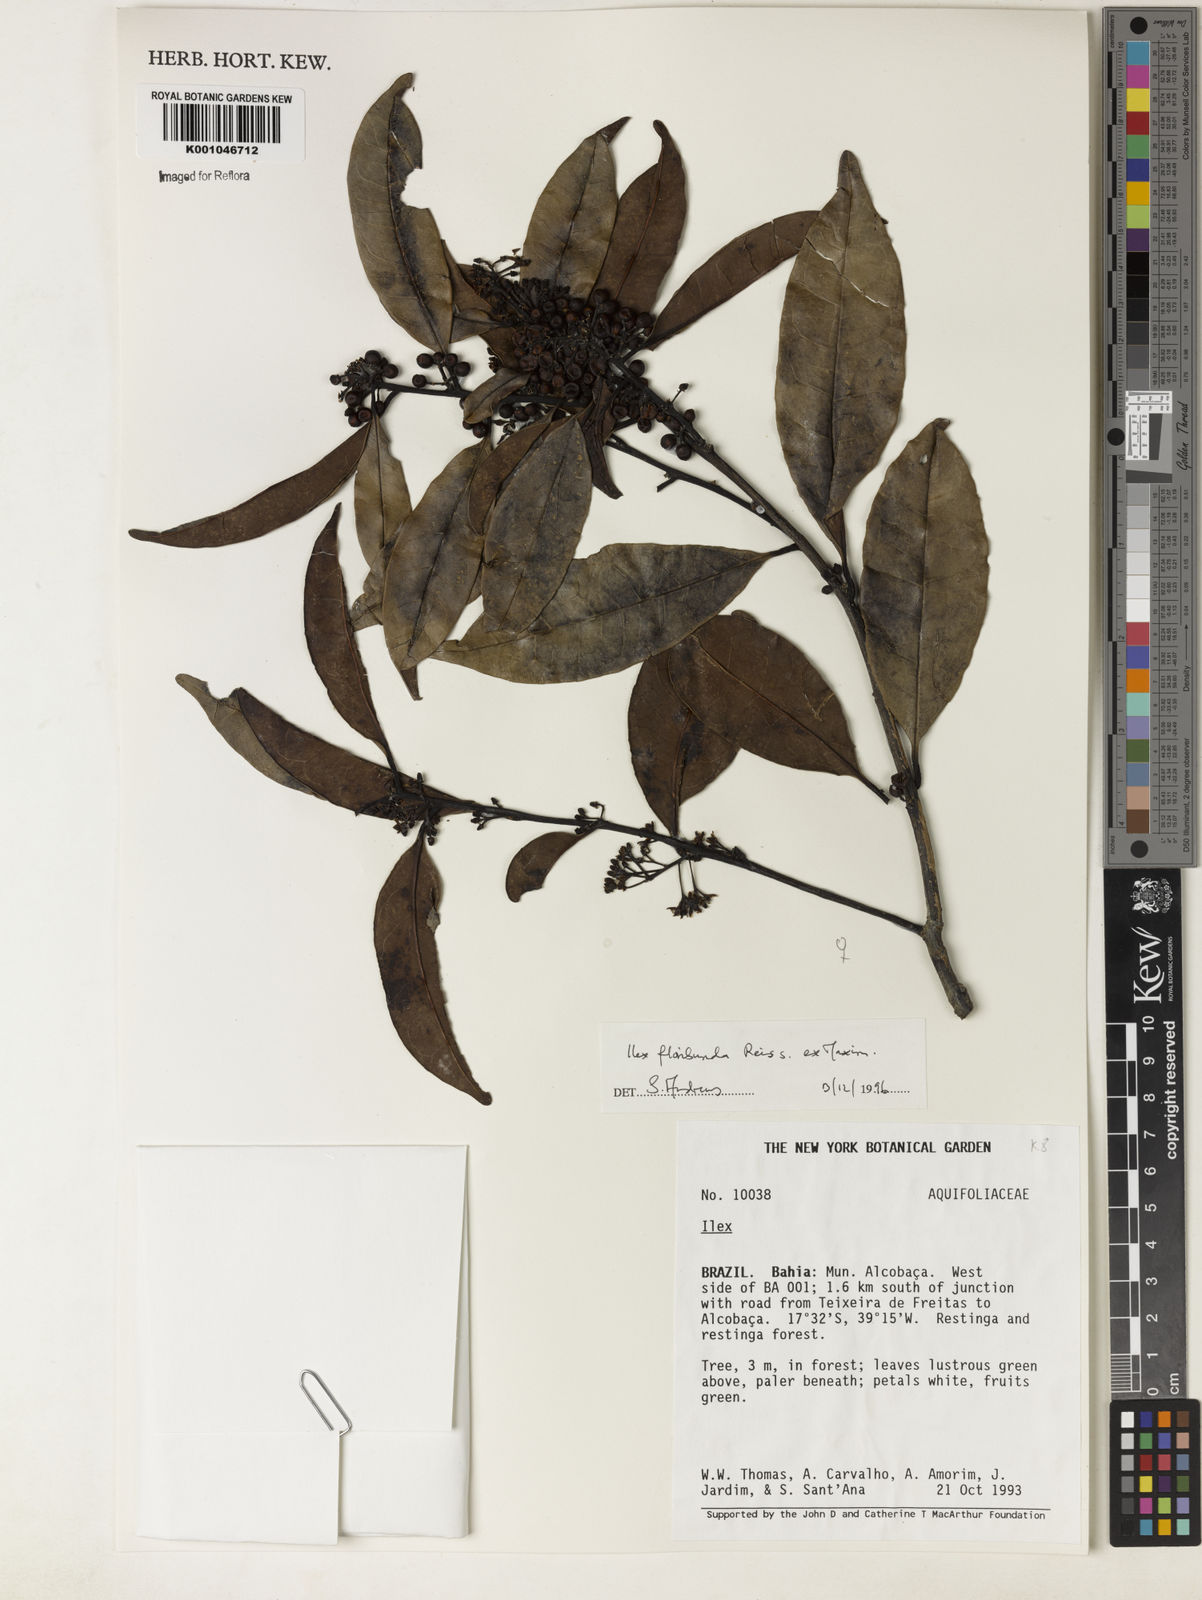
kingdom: Plantae
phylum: Tracheophyta
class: Magnoliopsida
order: Aquifoliales
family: Aquifoliaceae
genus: Ilex
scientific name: Ilex floribunda
